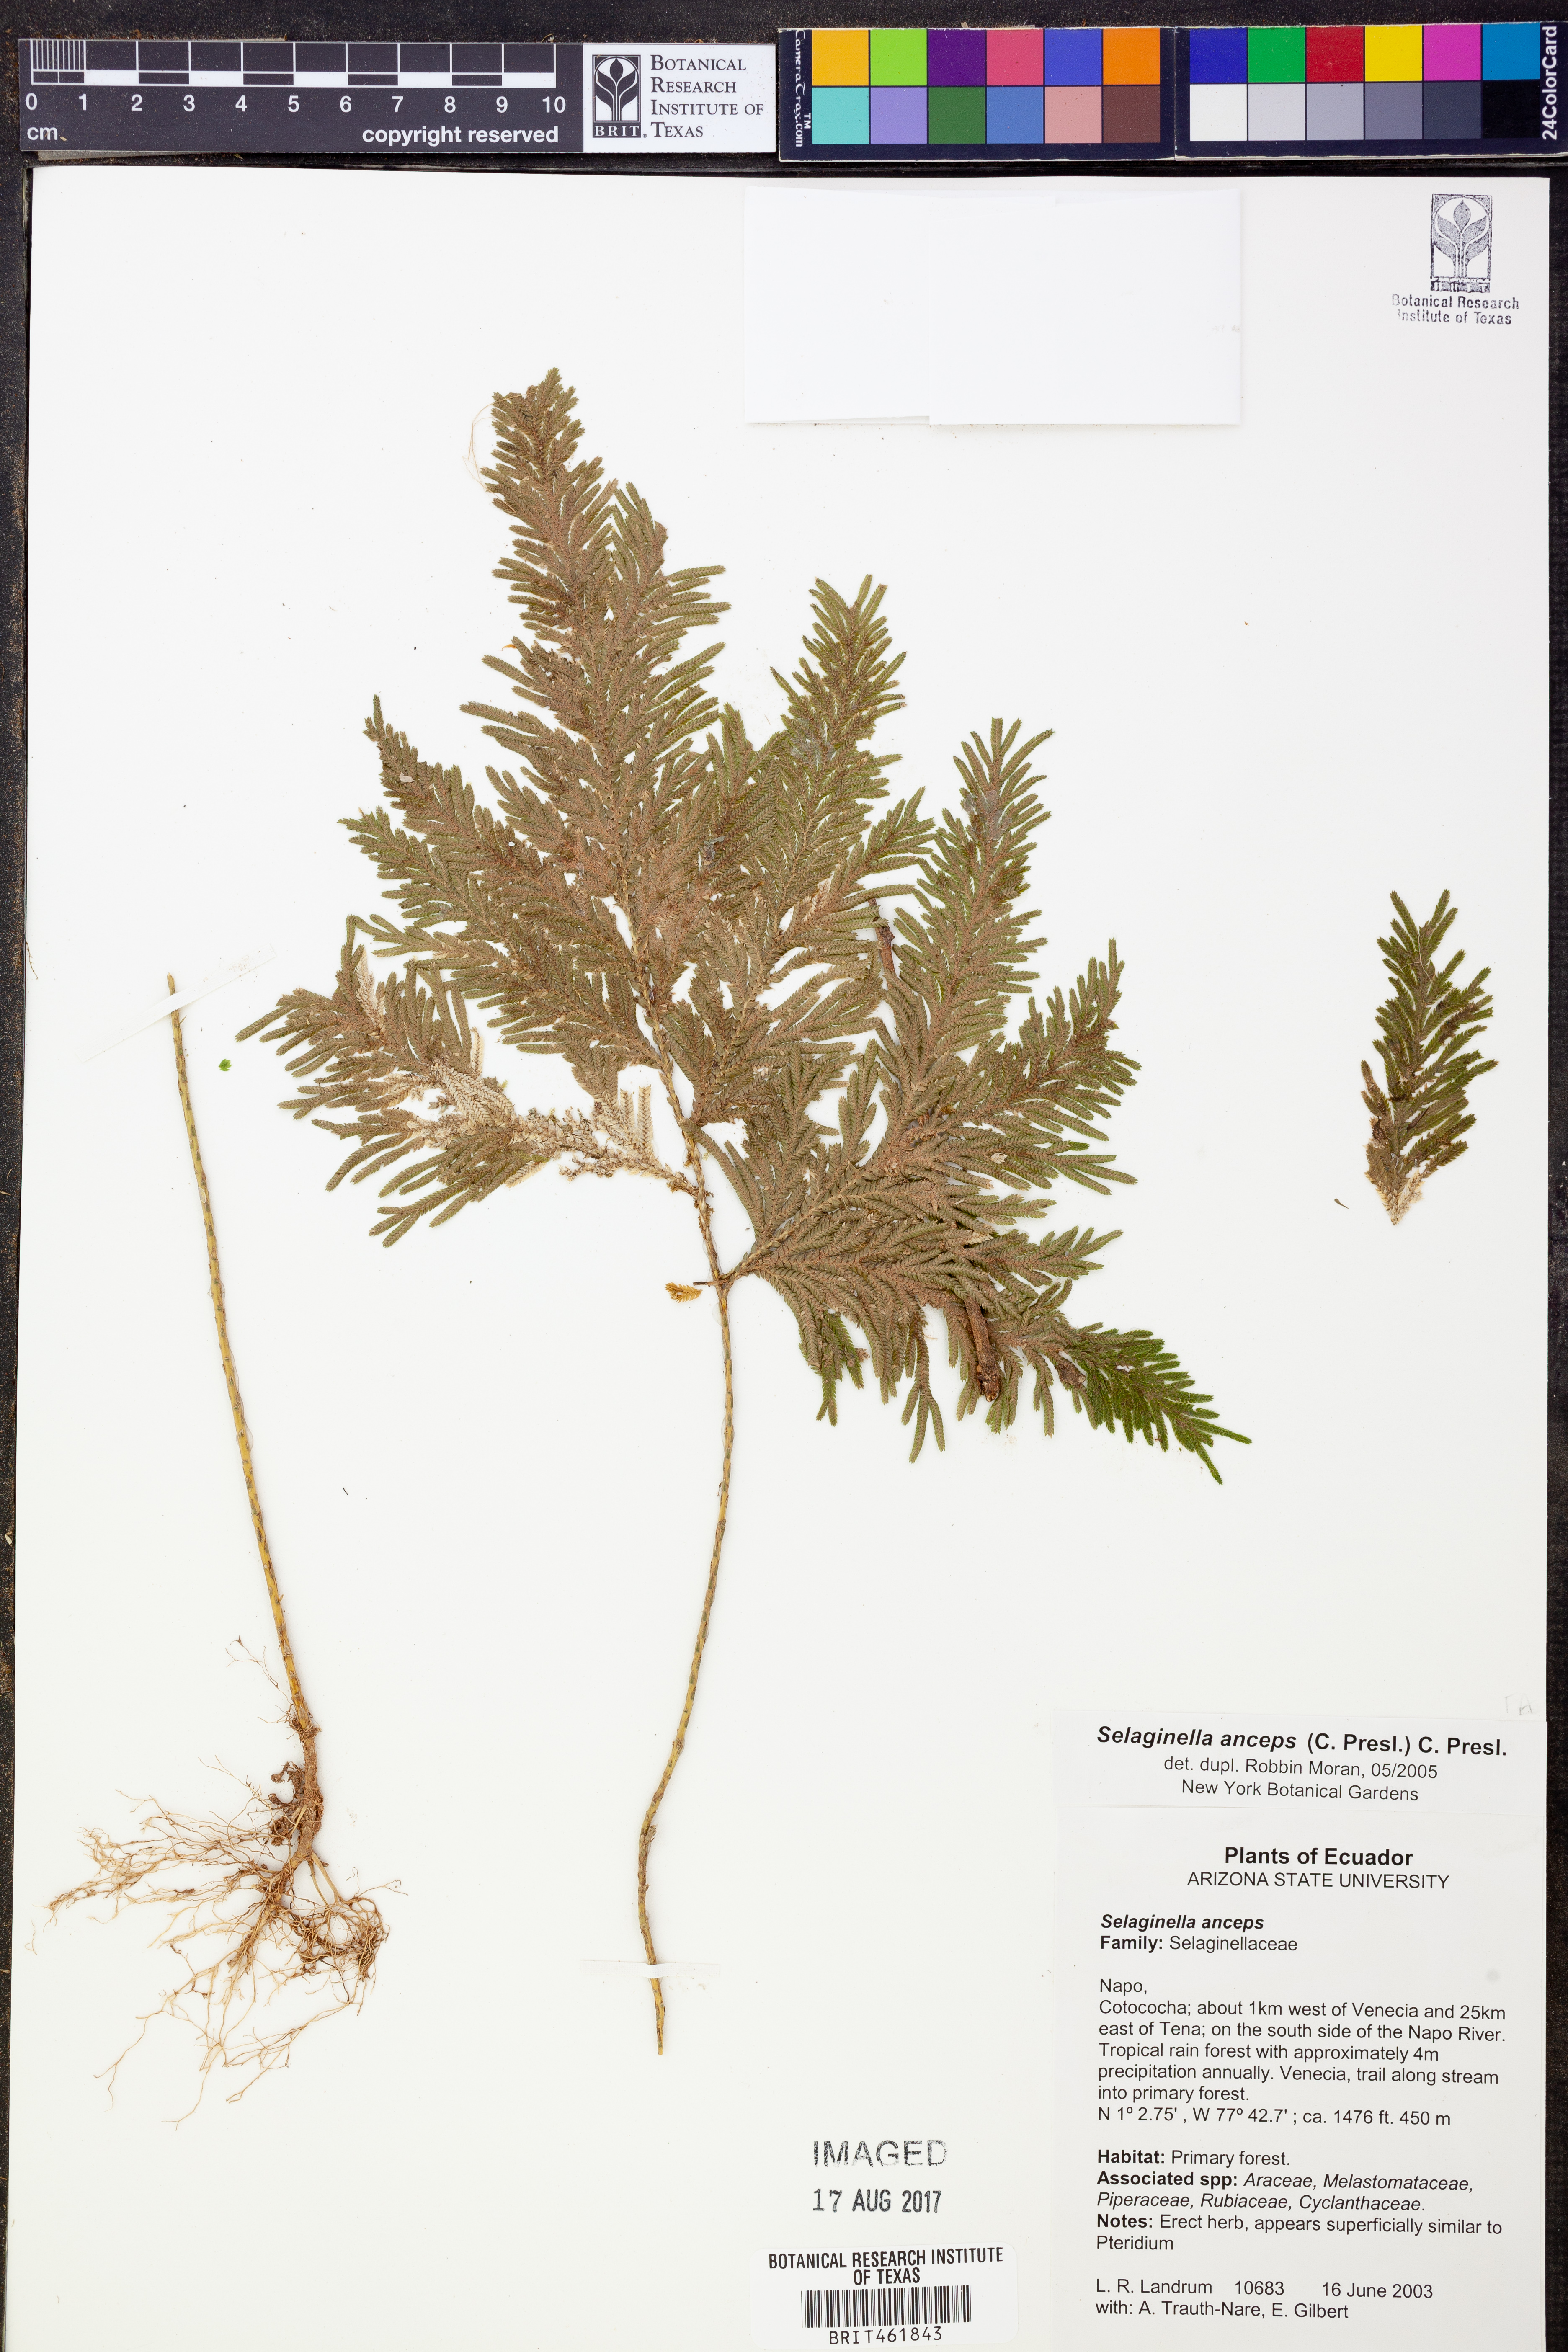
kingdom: Plantae
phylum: Tracheophyta
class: Lycopodiopsida
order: Selaginellales
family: Selaginellaceae
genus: Selaginella
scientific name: Selaginella anceps
